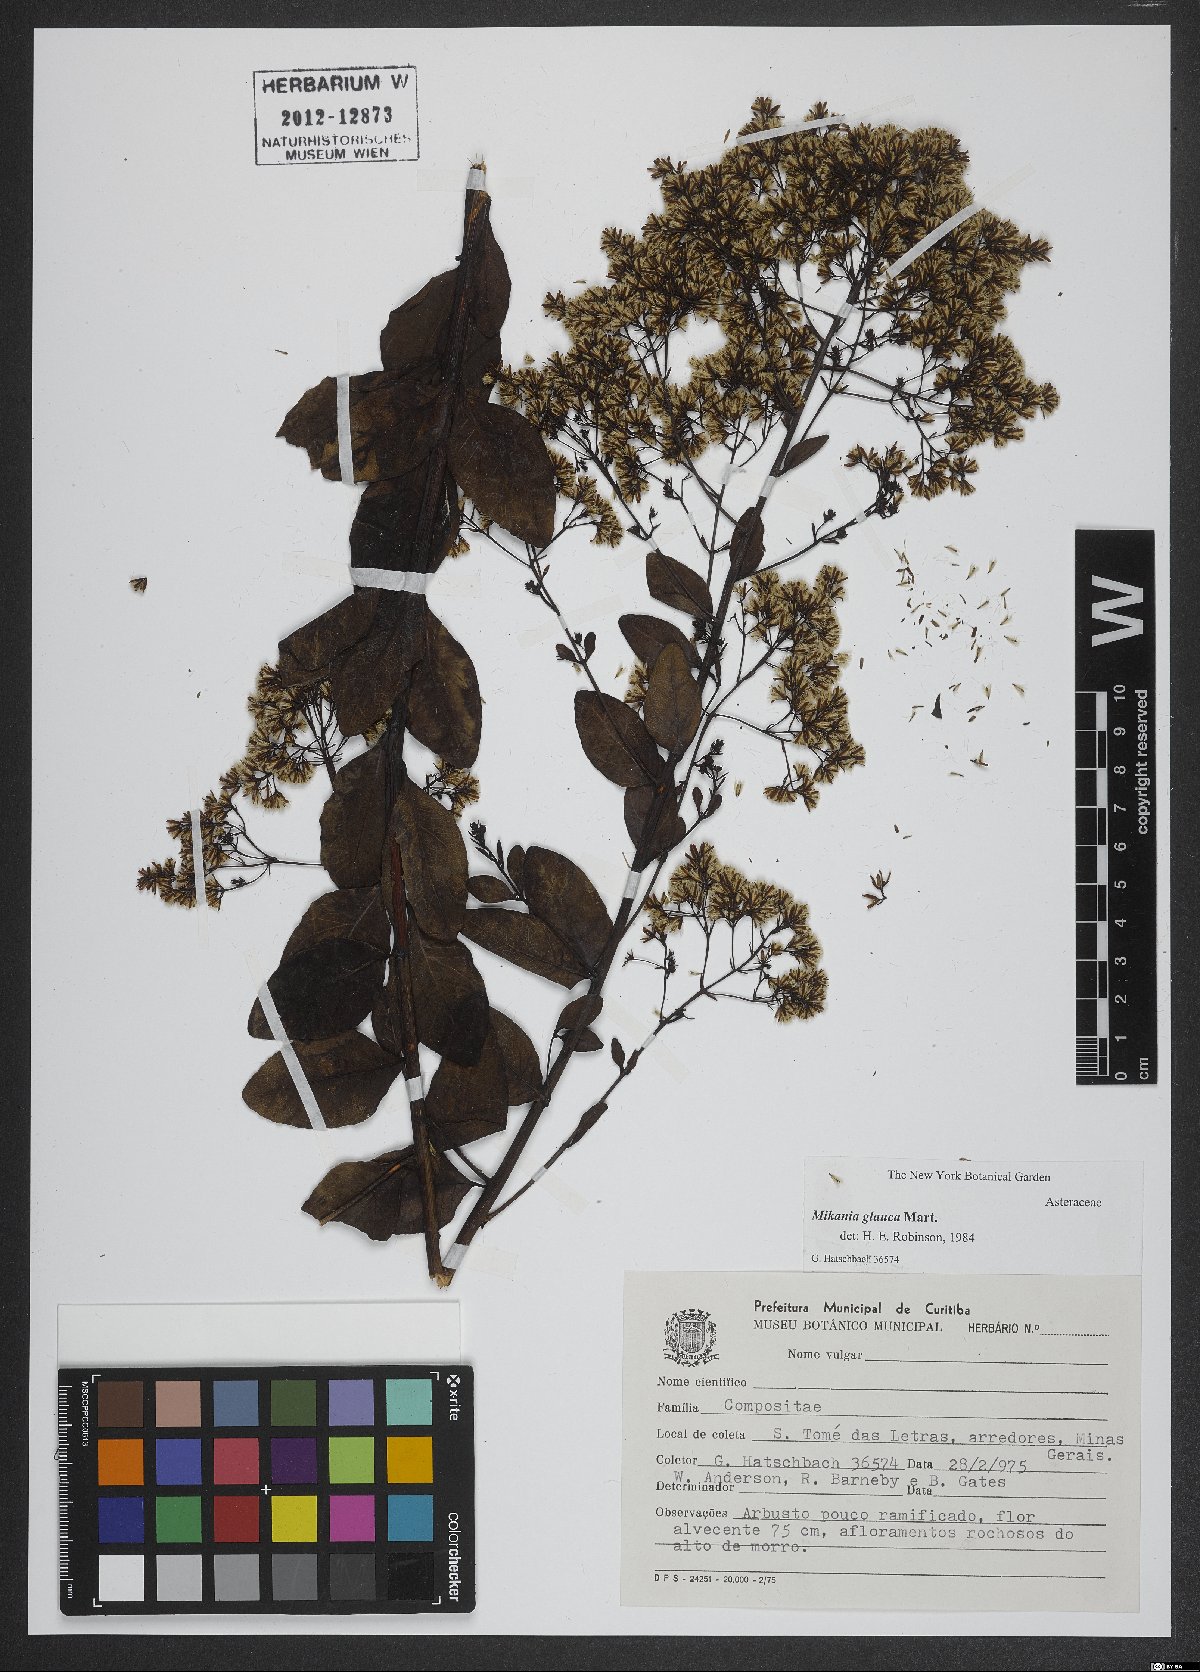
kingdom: Plantae
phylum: Tracheophyta
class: Magnoliopsida
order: Asterales
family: Asteraceae
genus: Mikania
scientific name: Mikania glauca
